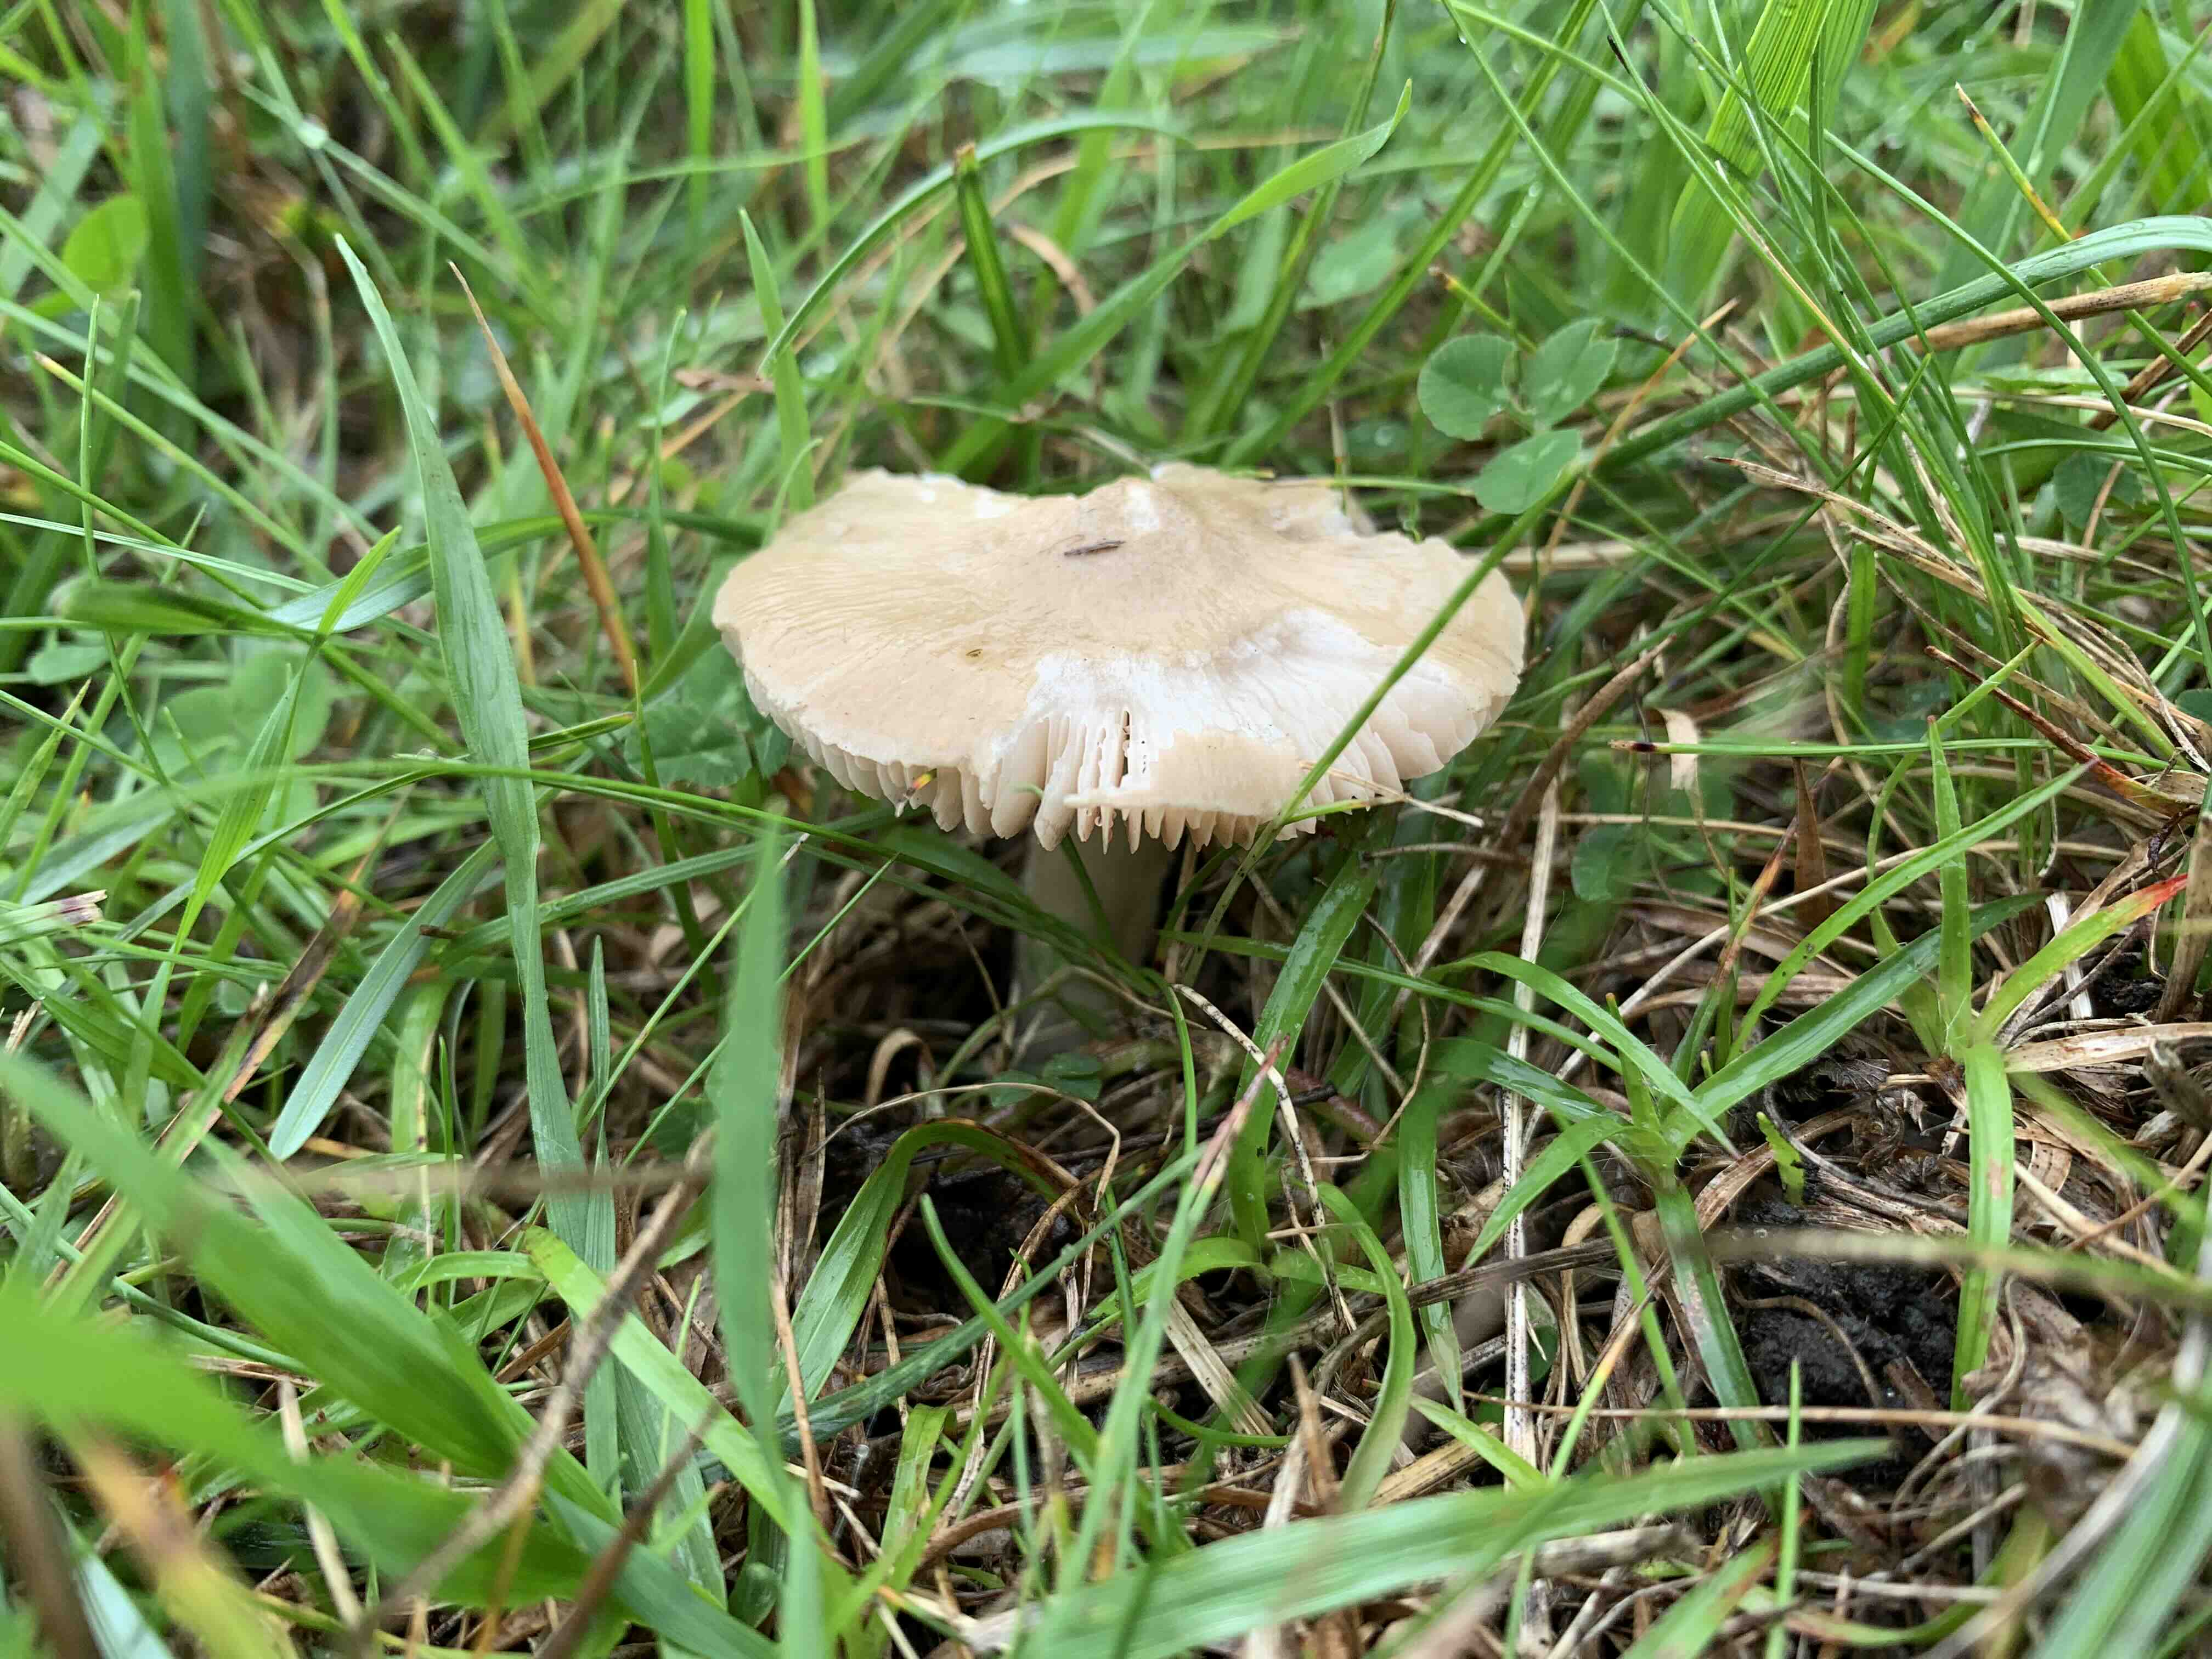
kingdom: Fungi
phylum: Basidiomycota
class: Agaricomycetes
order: Agaricales
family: Entolomataceae
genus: Entoloma
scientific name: Entoloma prunuloides
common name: mel-rødblad
